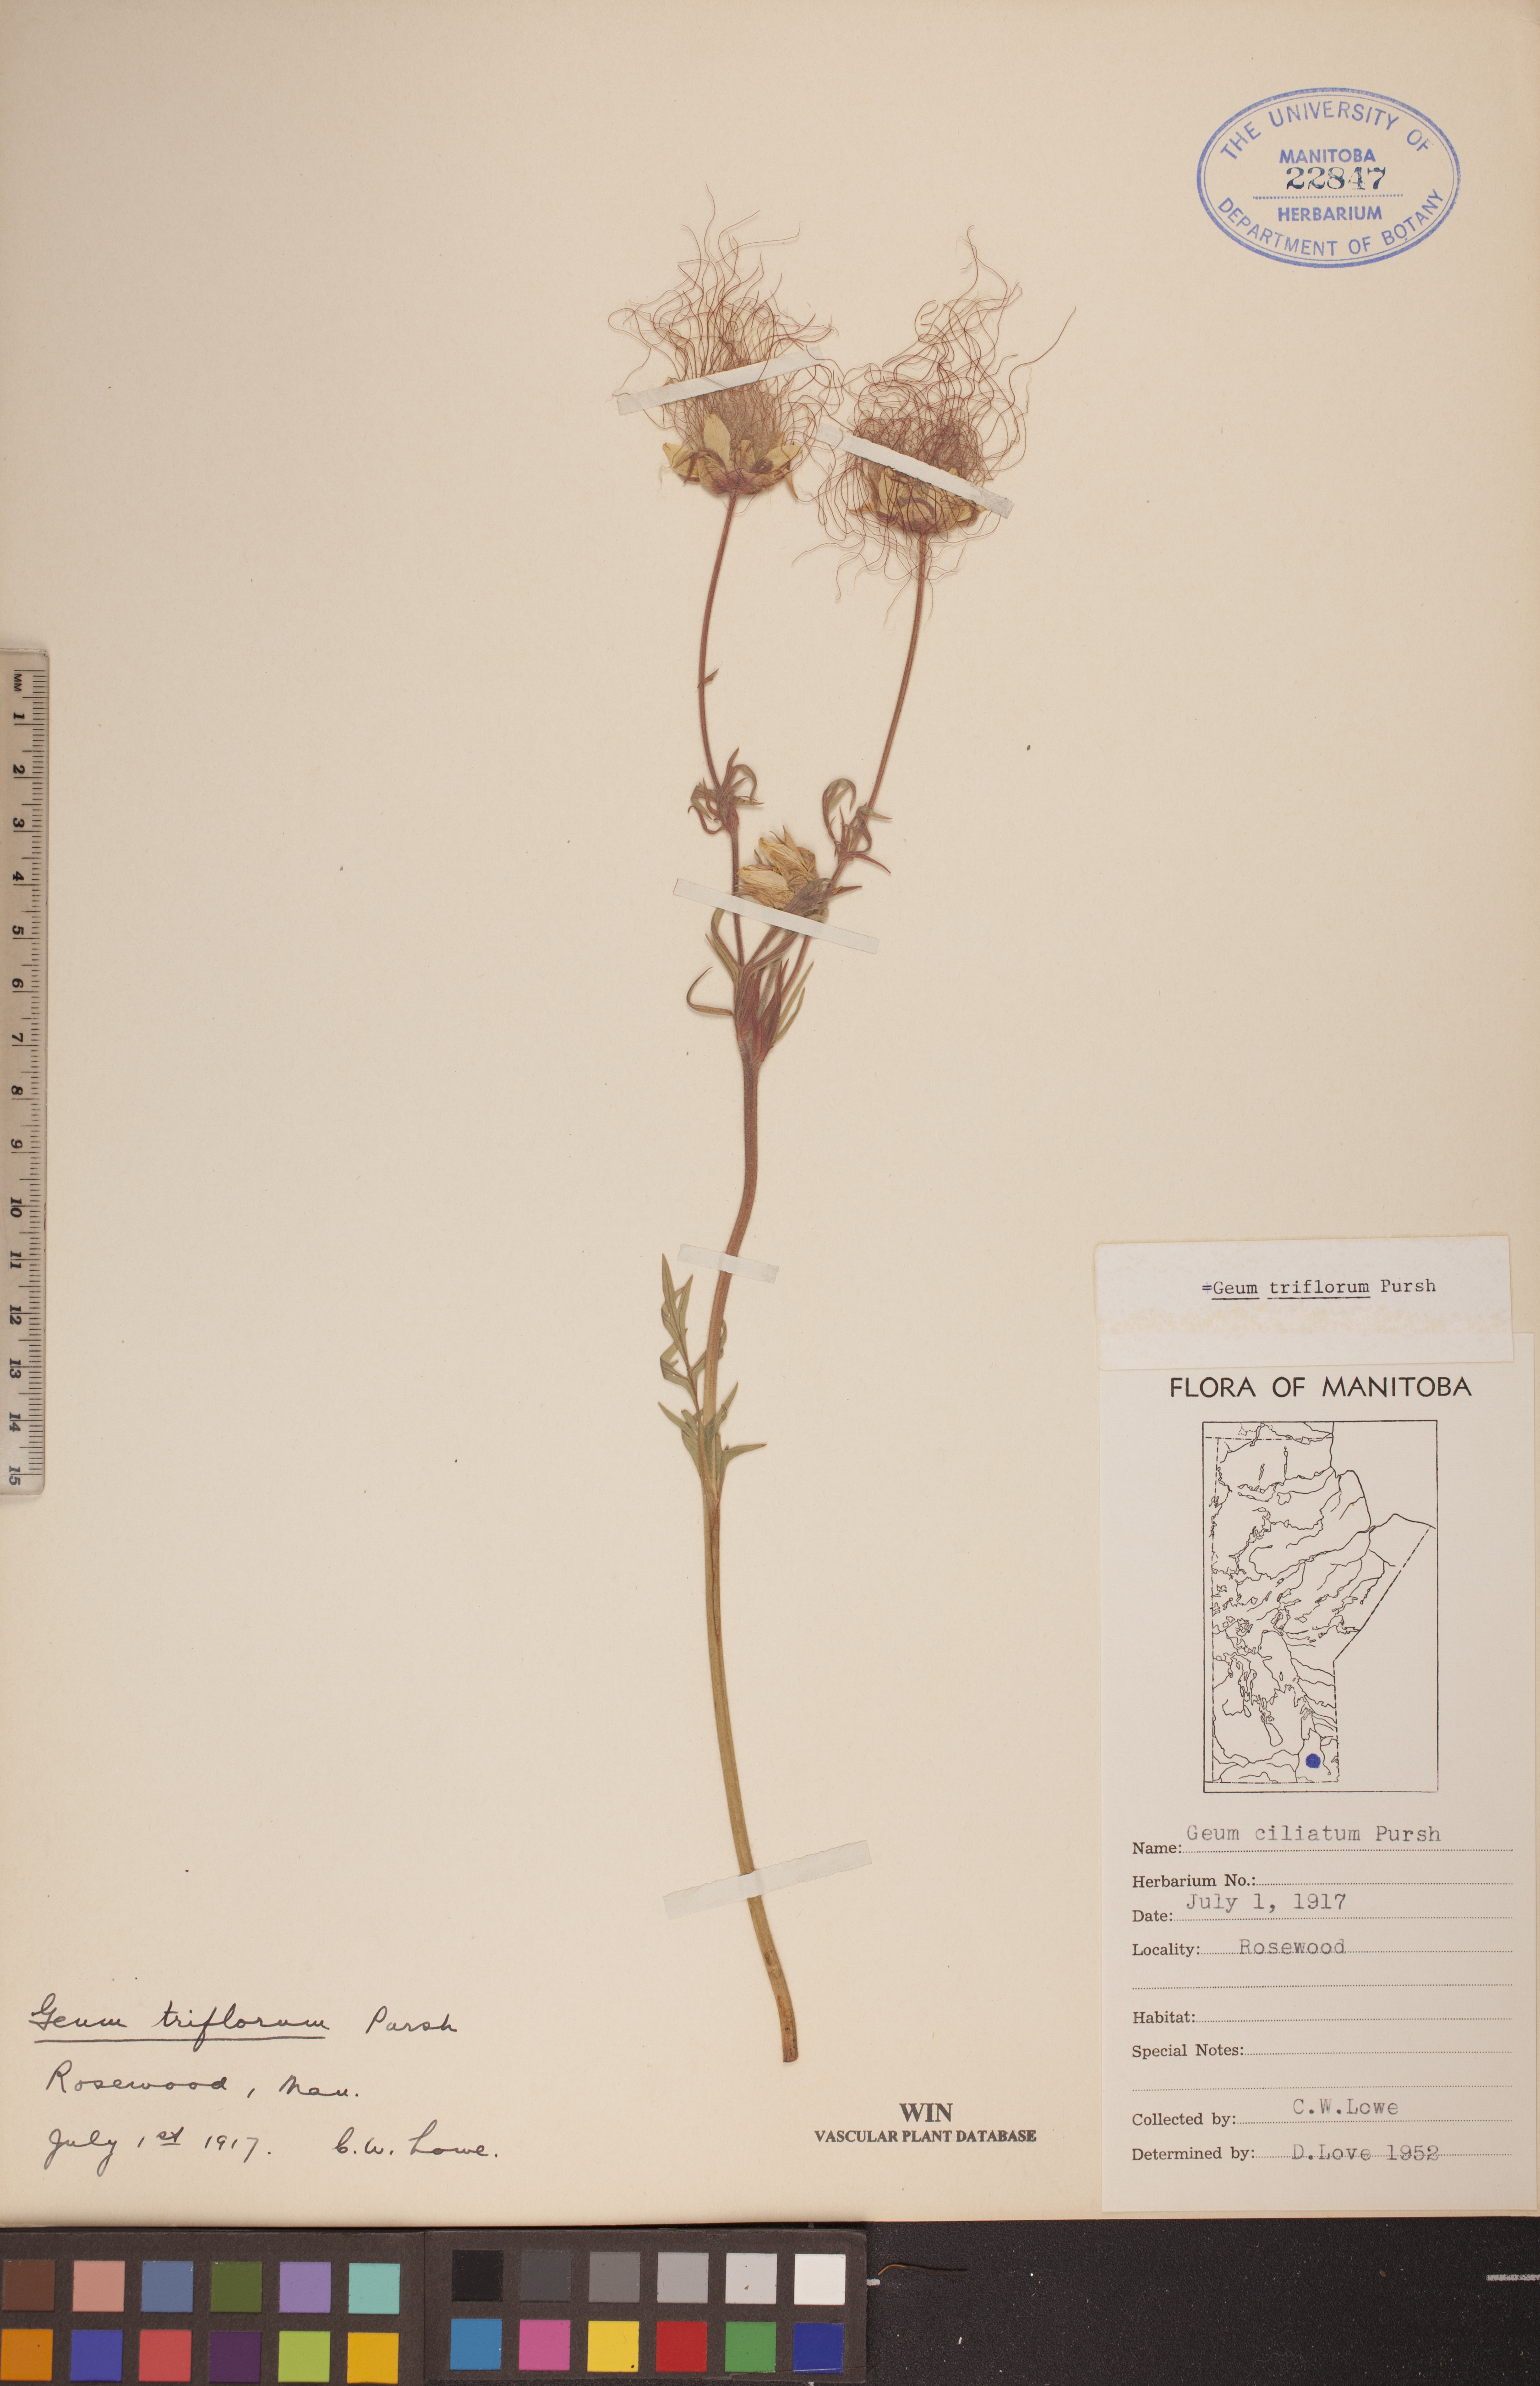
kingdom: Plantae
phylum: Tracheophyta
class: Magnoliopsida
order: Rosales
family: Rosaceae
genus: Geum
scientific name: Geum triflorum
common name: Old man's whiskers
